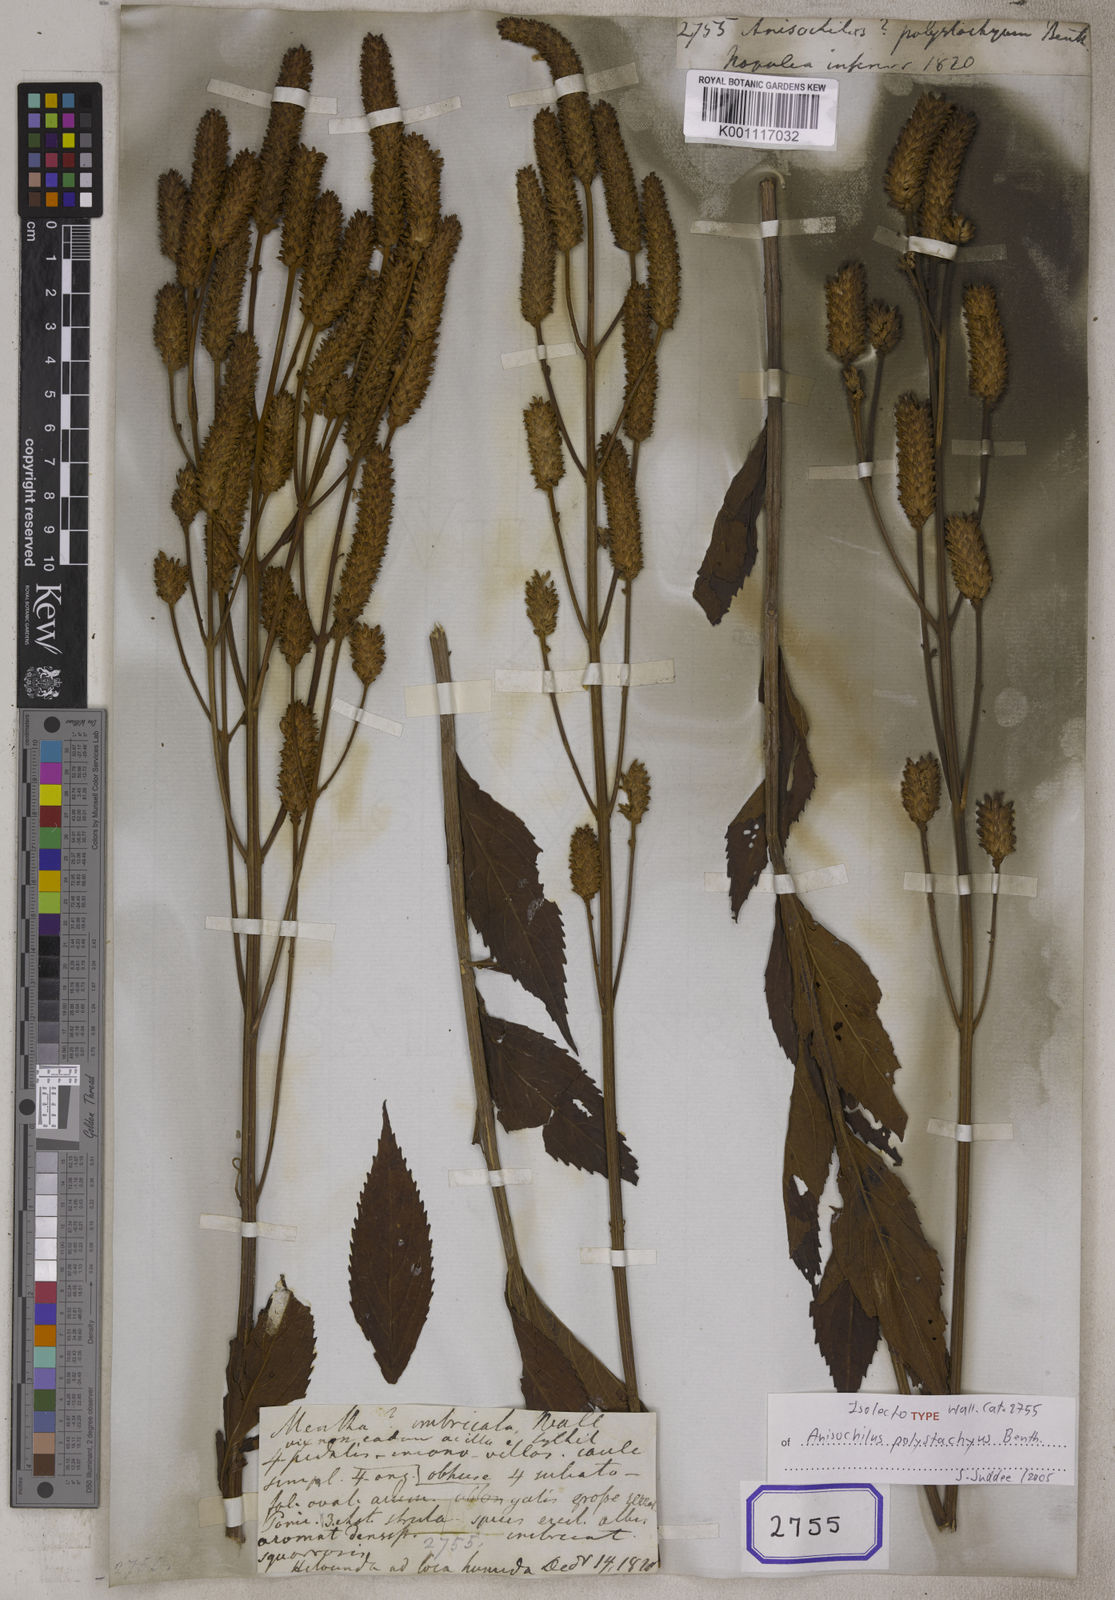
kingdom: Plantae
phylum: Tracheophyta
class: Magnoliopsida
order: Lamiales
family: Lamiaceae
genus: Coleus
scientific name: Coleus polystachyus
